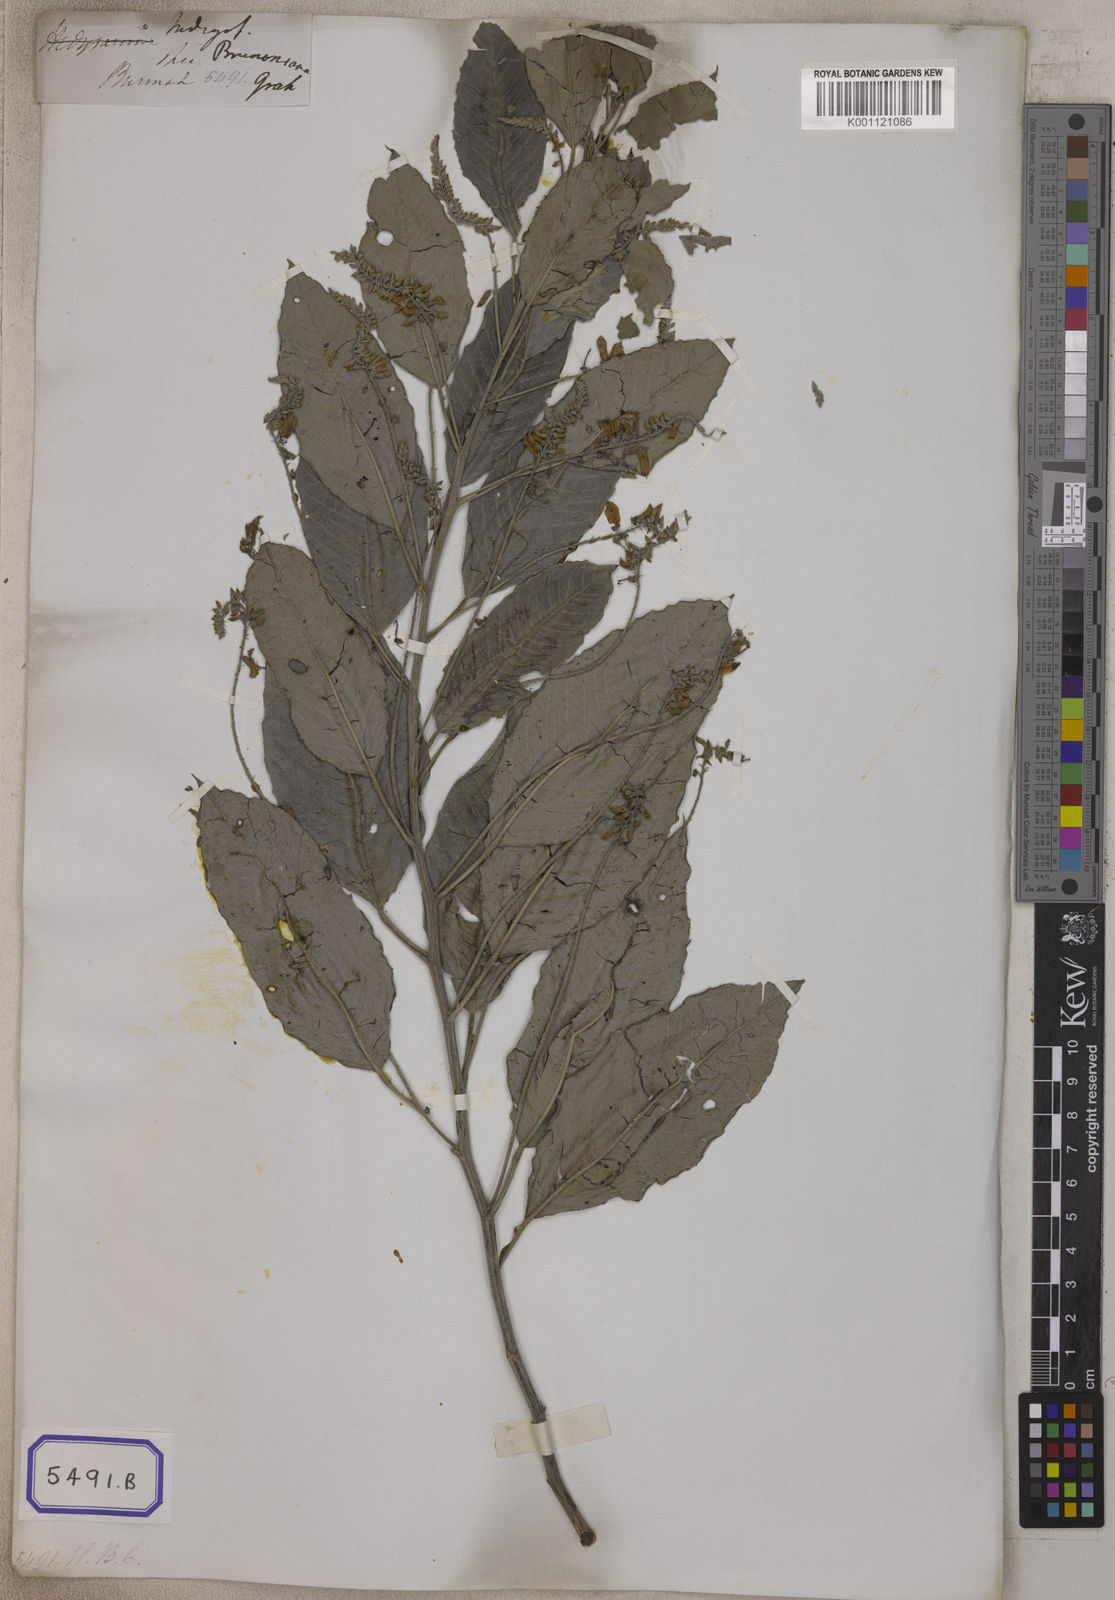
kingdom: Plantae
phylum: Tracheophyta
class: Magnoliopsida
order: Fabales
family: Fabaceae
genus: Indigofera
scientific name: Indigofera
